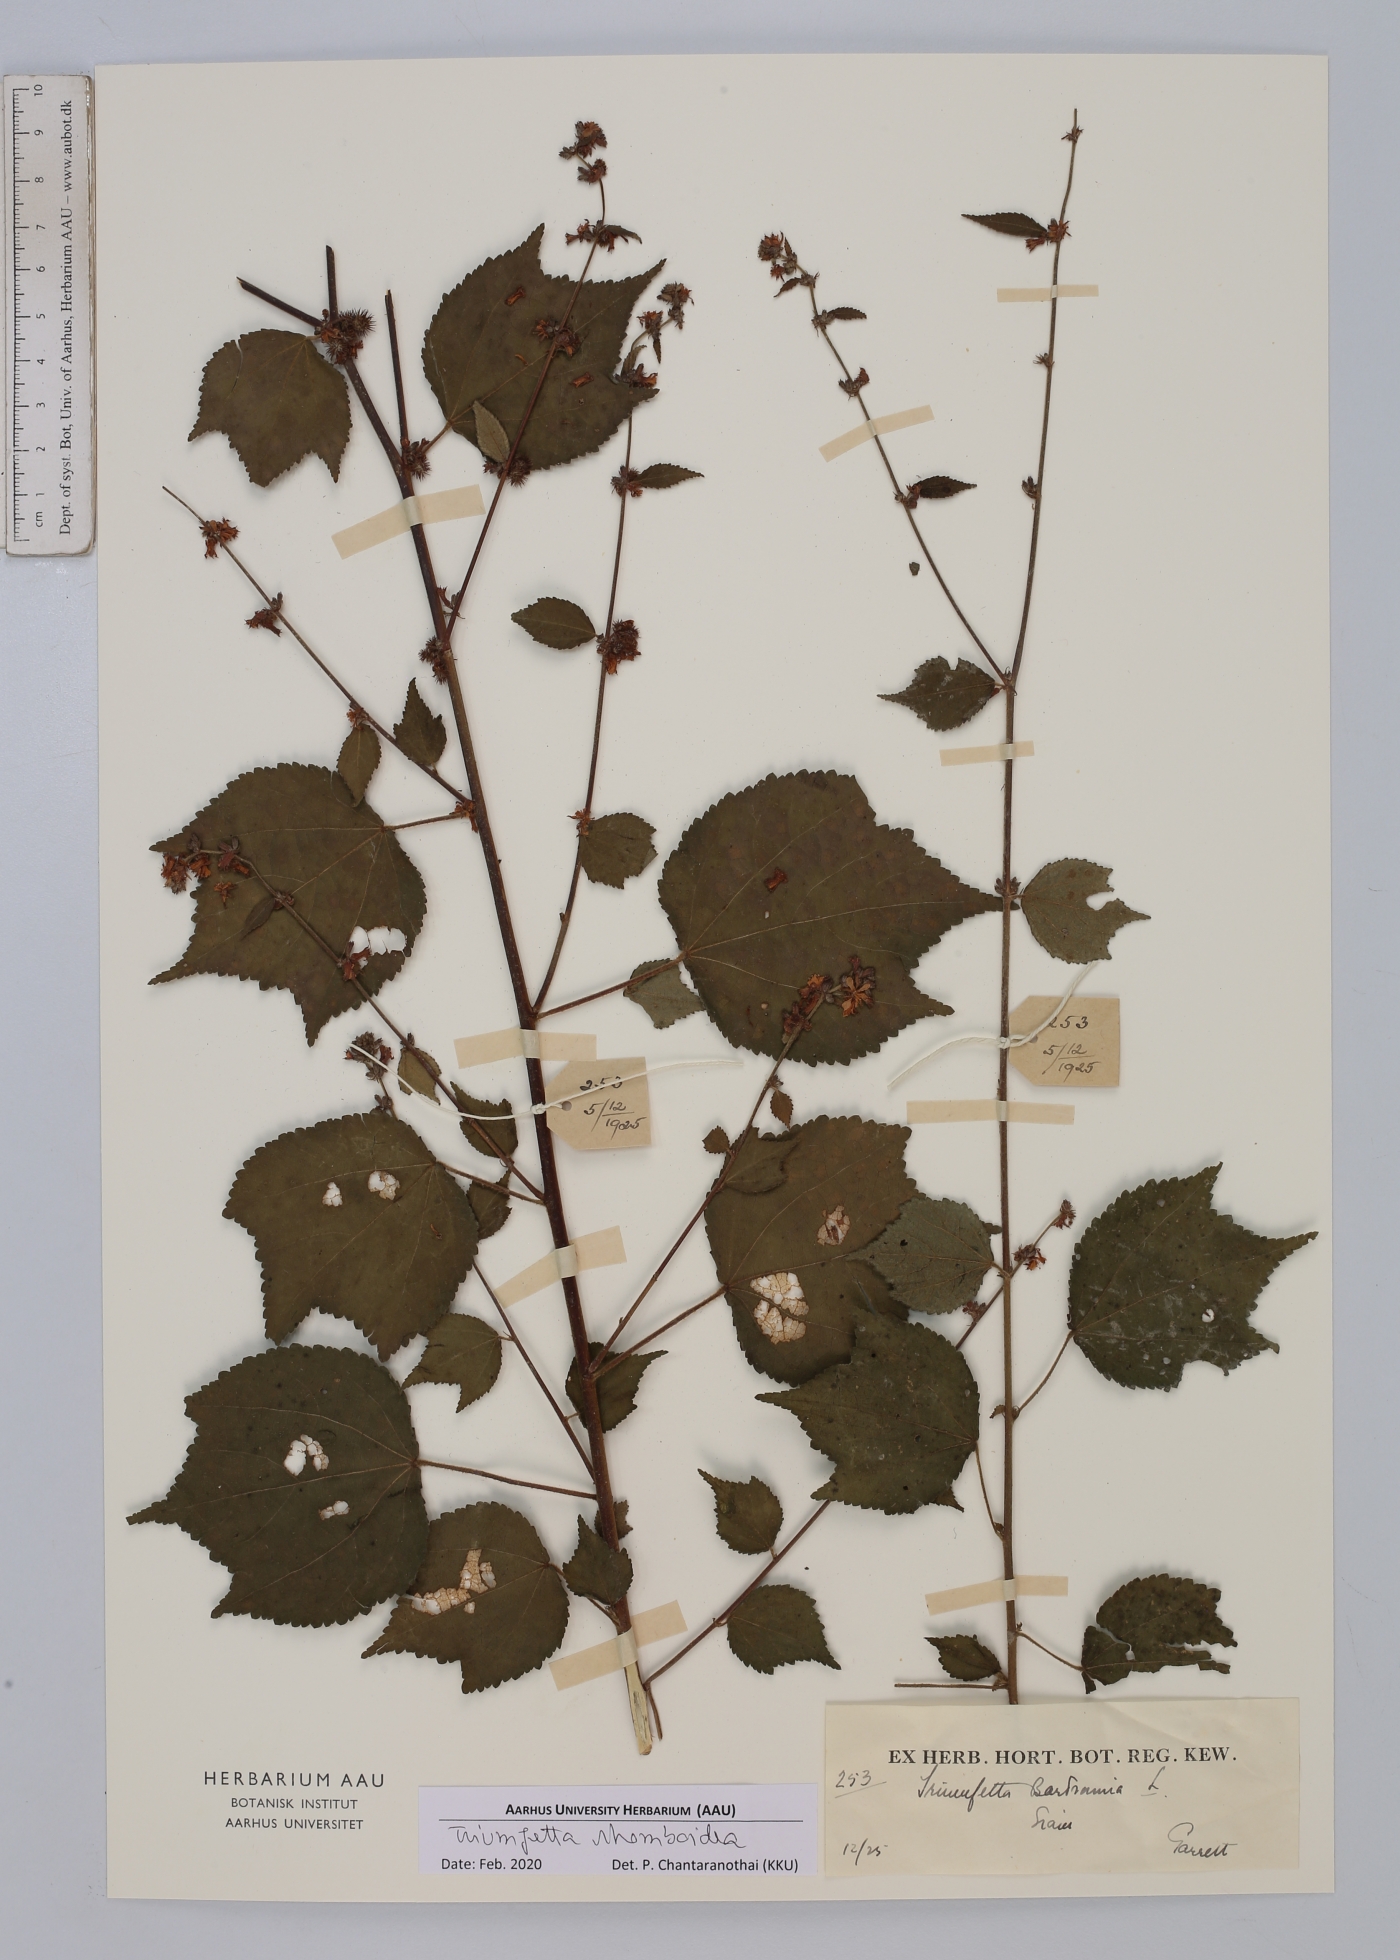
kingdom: Plantae
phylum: Tracheophyta
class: Magnoliopsida
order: Malvales
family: Malvaceae
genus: Triumfetta
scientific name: Triumfetta rhomboidea
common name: Diamond burbark
